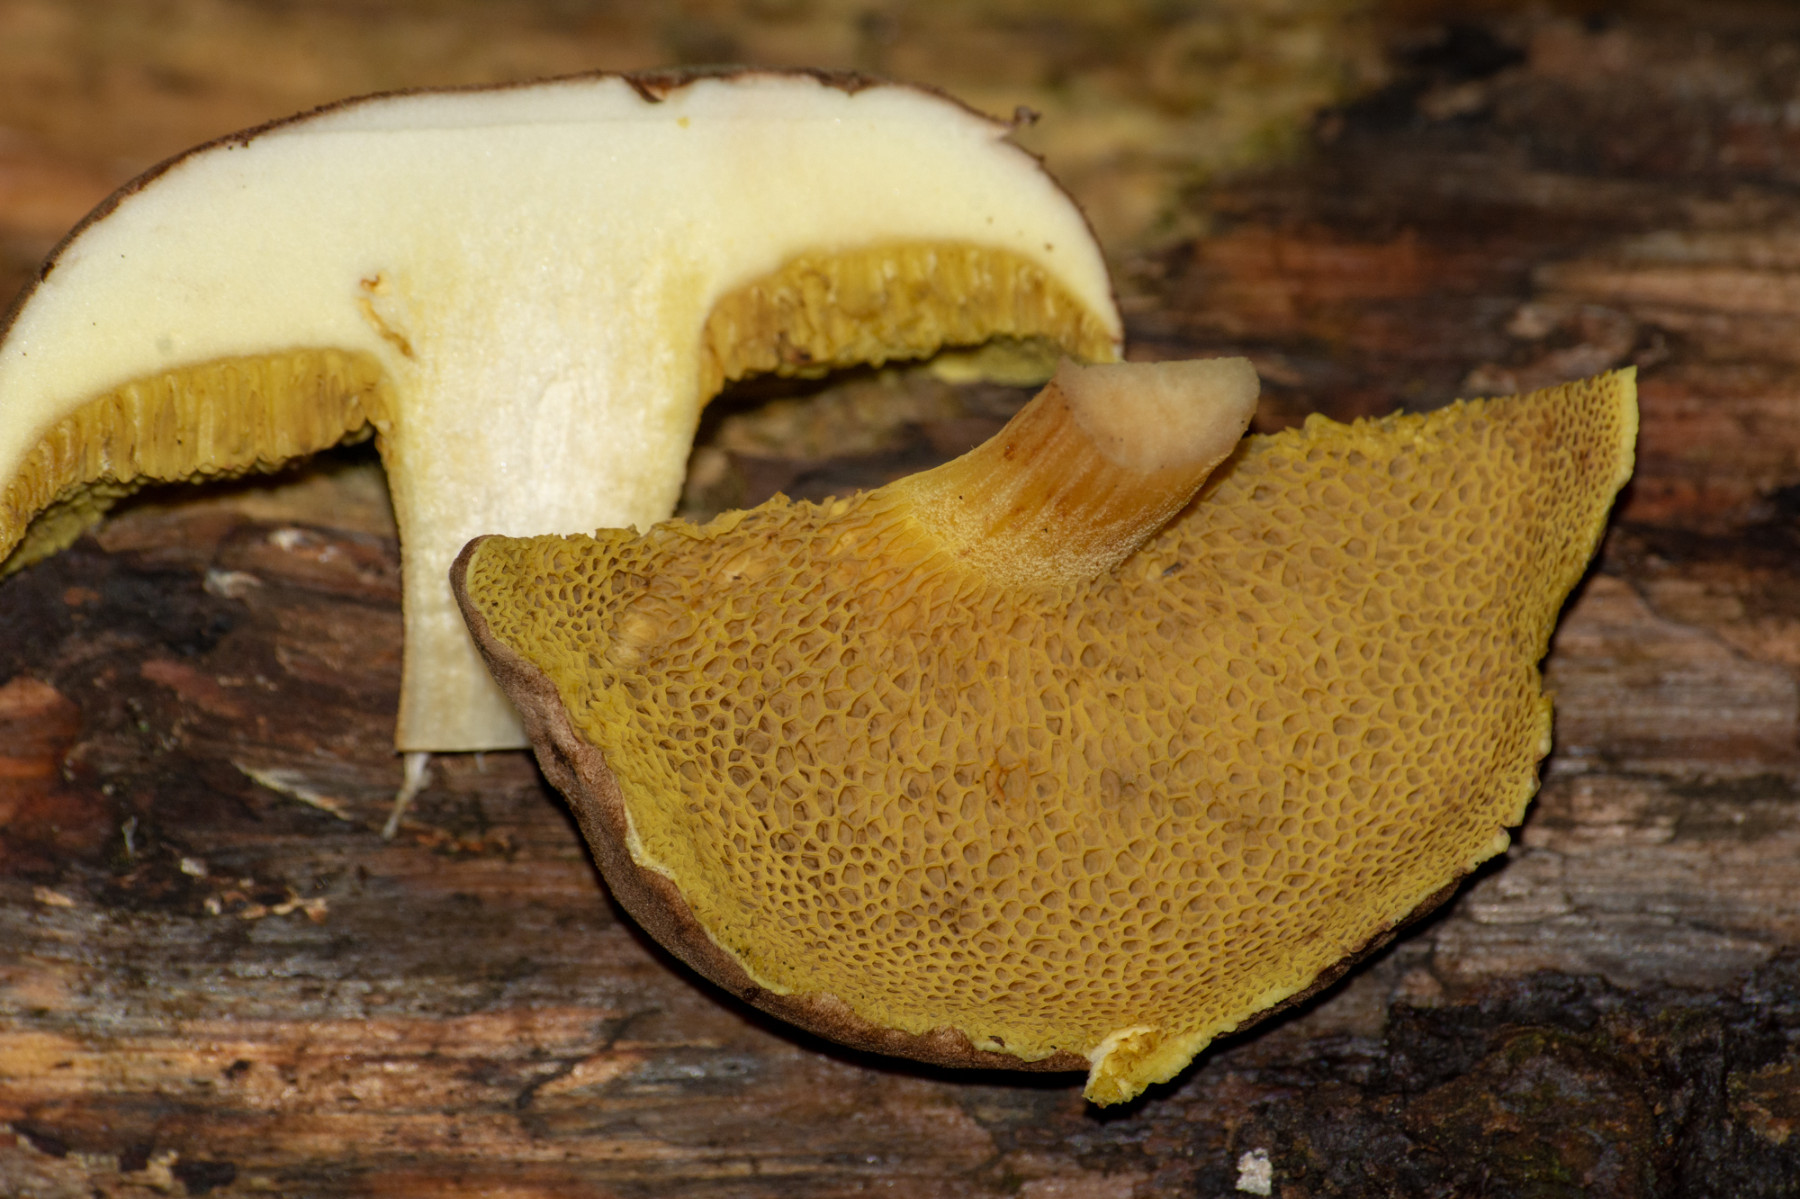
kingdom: Fungi
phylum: Basidiomycota
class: Agaricomycetes
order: Boletales
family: Boletaceae
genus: Xerocomus
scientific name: Xerocomus
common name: filtrørhat
